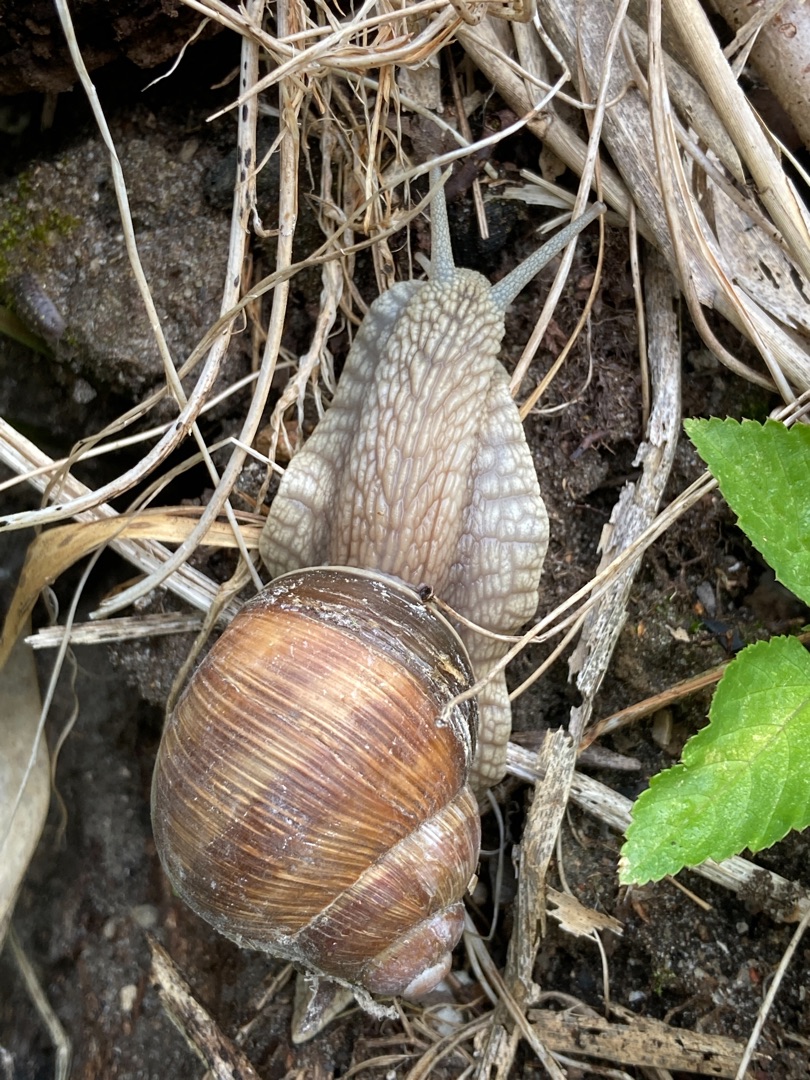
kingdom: Animalia
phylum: Mollusca
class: Gastropoda
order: Stylommatophora
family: Helicidae
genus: Helix
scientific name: Helix pomatia
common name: Vinbjergsnegl
